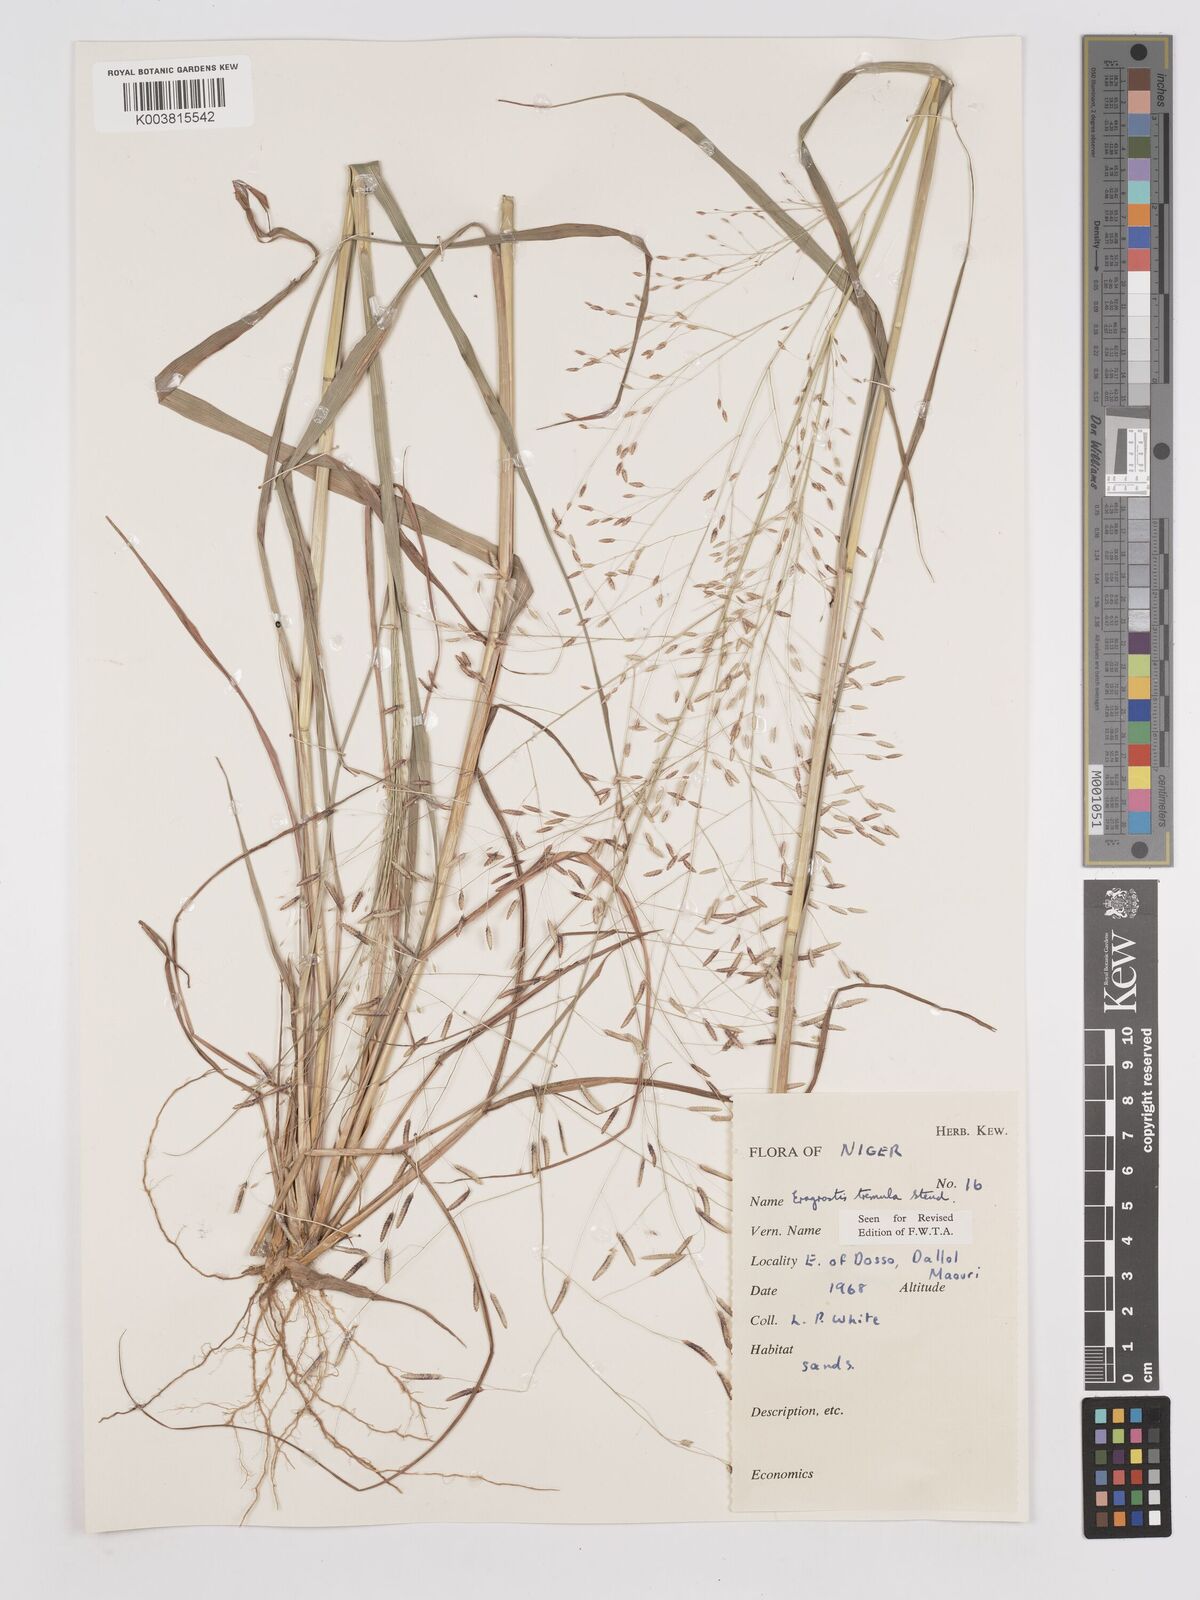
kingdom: Plantae
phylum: Tracheophyta
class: Liliopsida
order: Poales
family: Poaceae
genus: Eragrostis
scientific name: Eragrostis tremula
